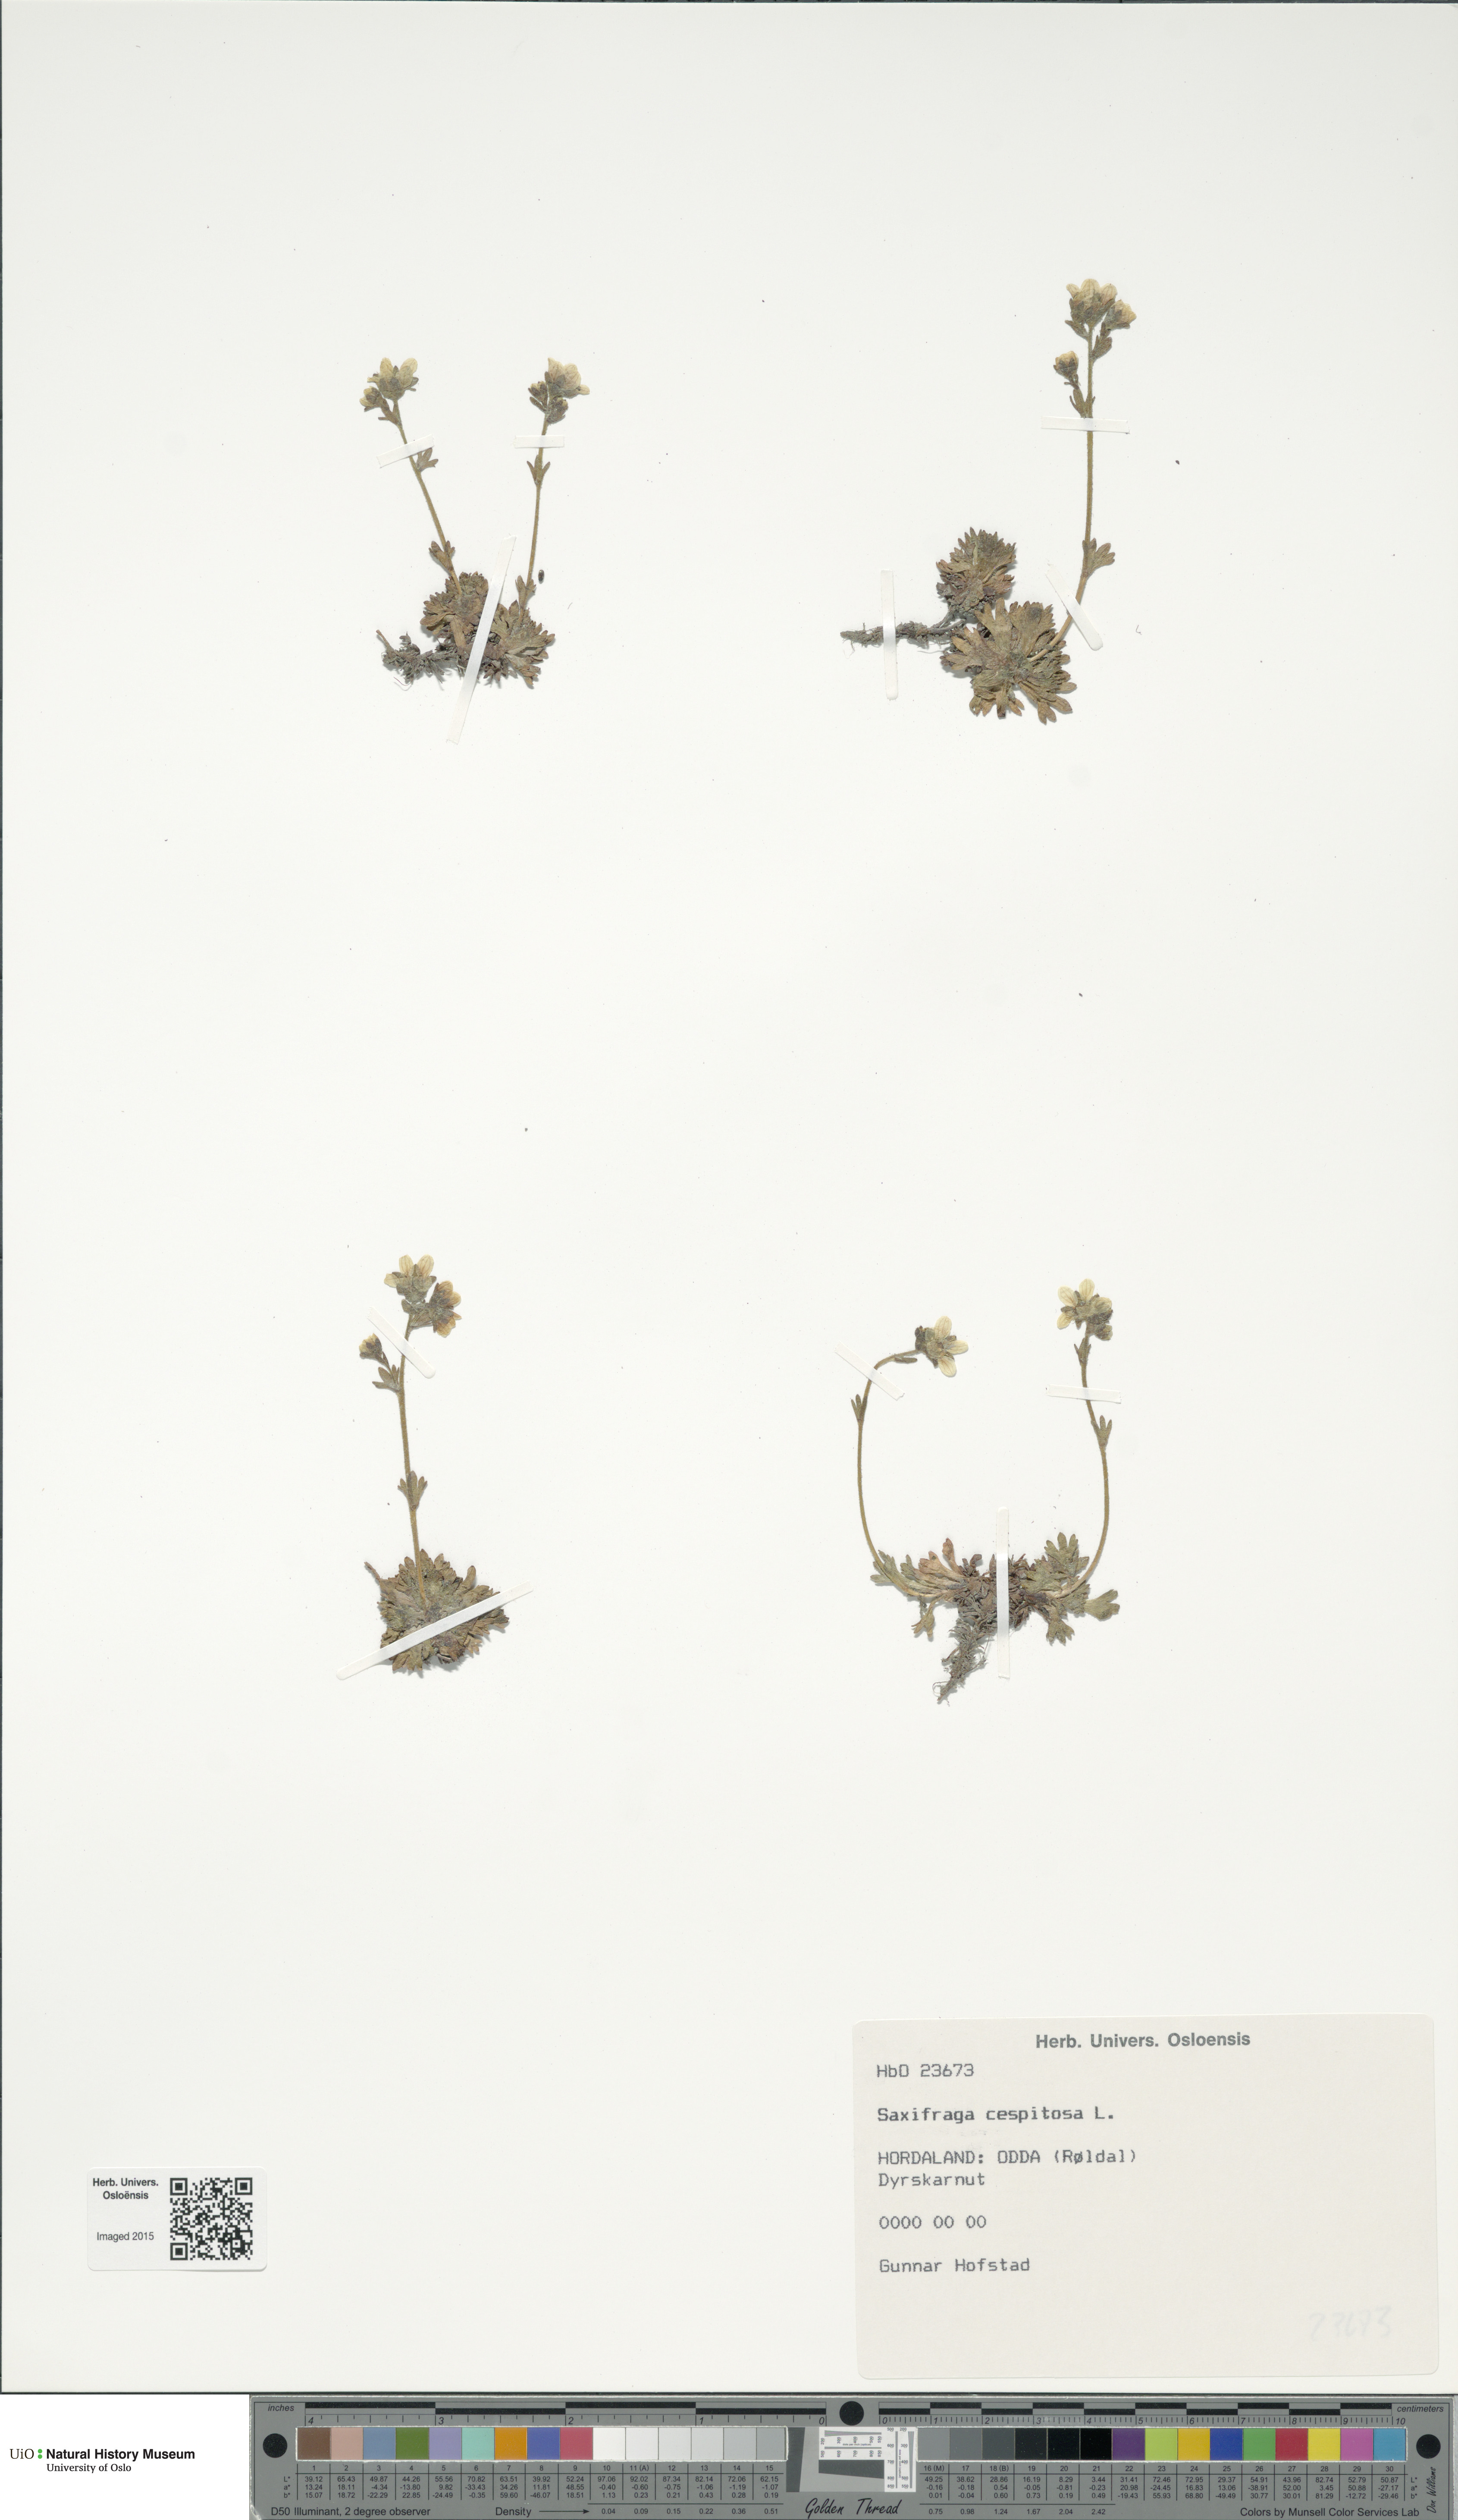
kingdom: Plantae
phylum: Tracheophyta
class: Magnoliopsida
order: Saxifragales
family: Saxifragaceae
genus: Saxifraga
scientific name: Saxifraga cespitosa
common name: Tufted saxifrage
